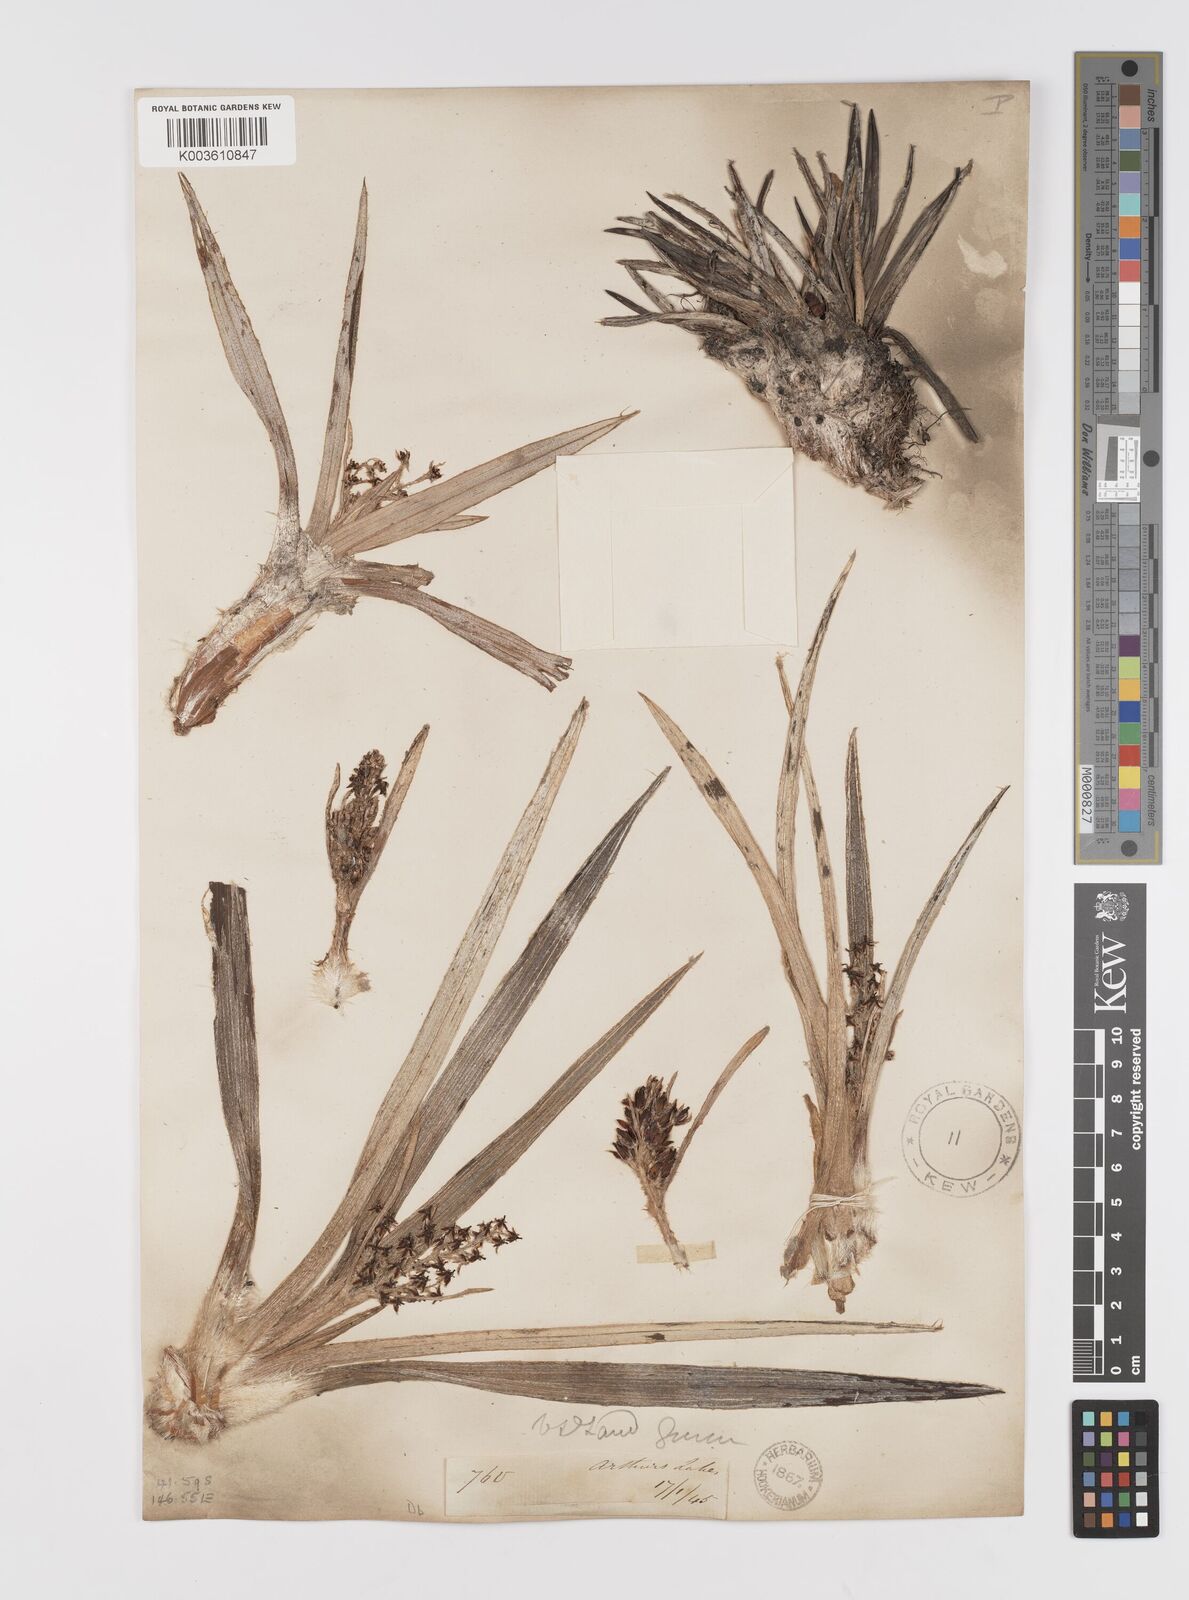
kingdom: Plantae
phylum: Tracheophyta
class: Liliopsida
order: Asparagales
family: Asteliaceae
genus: Astelia
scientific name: Astelia alpina
